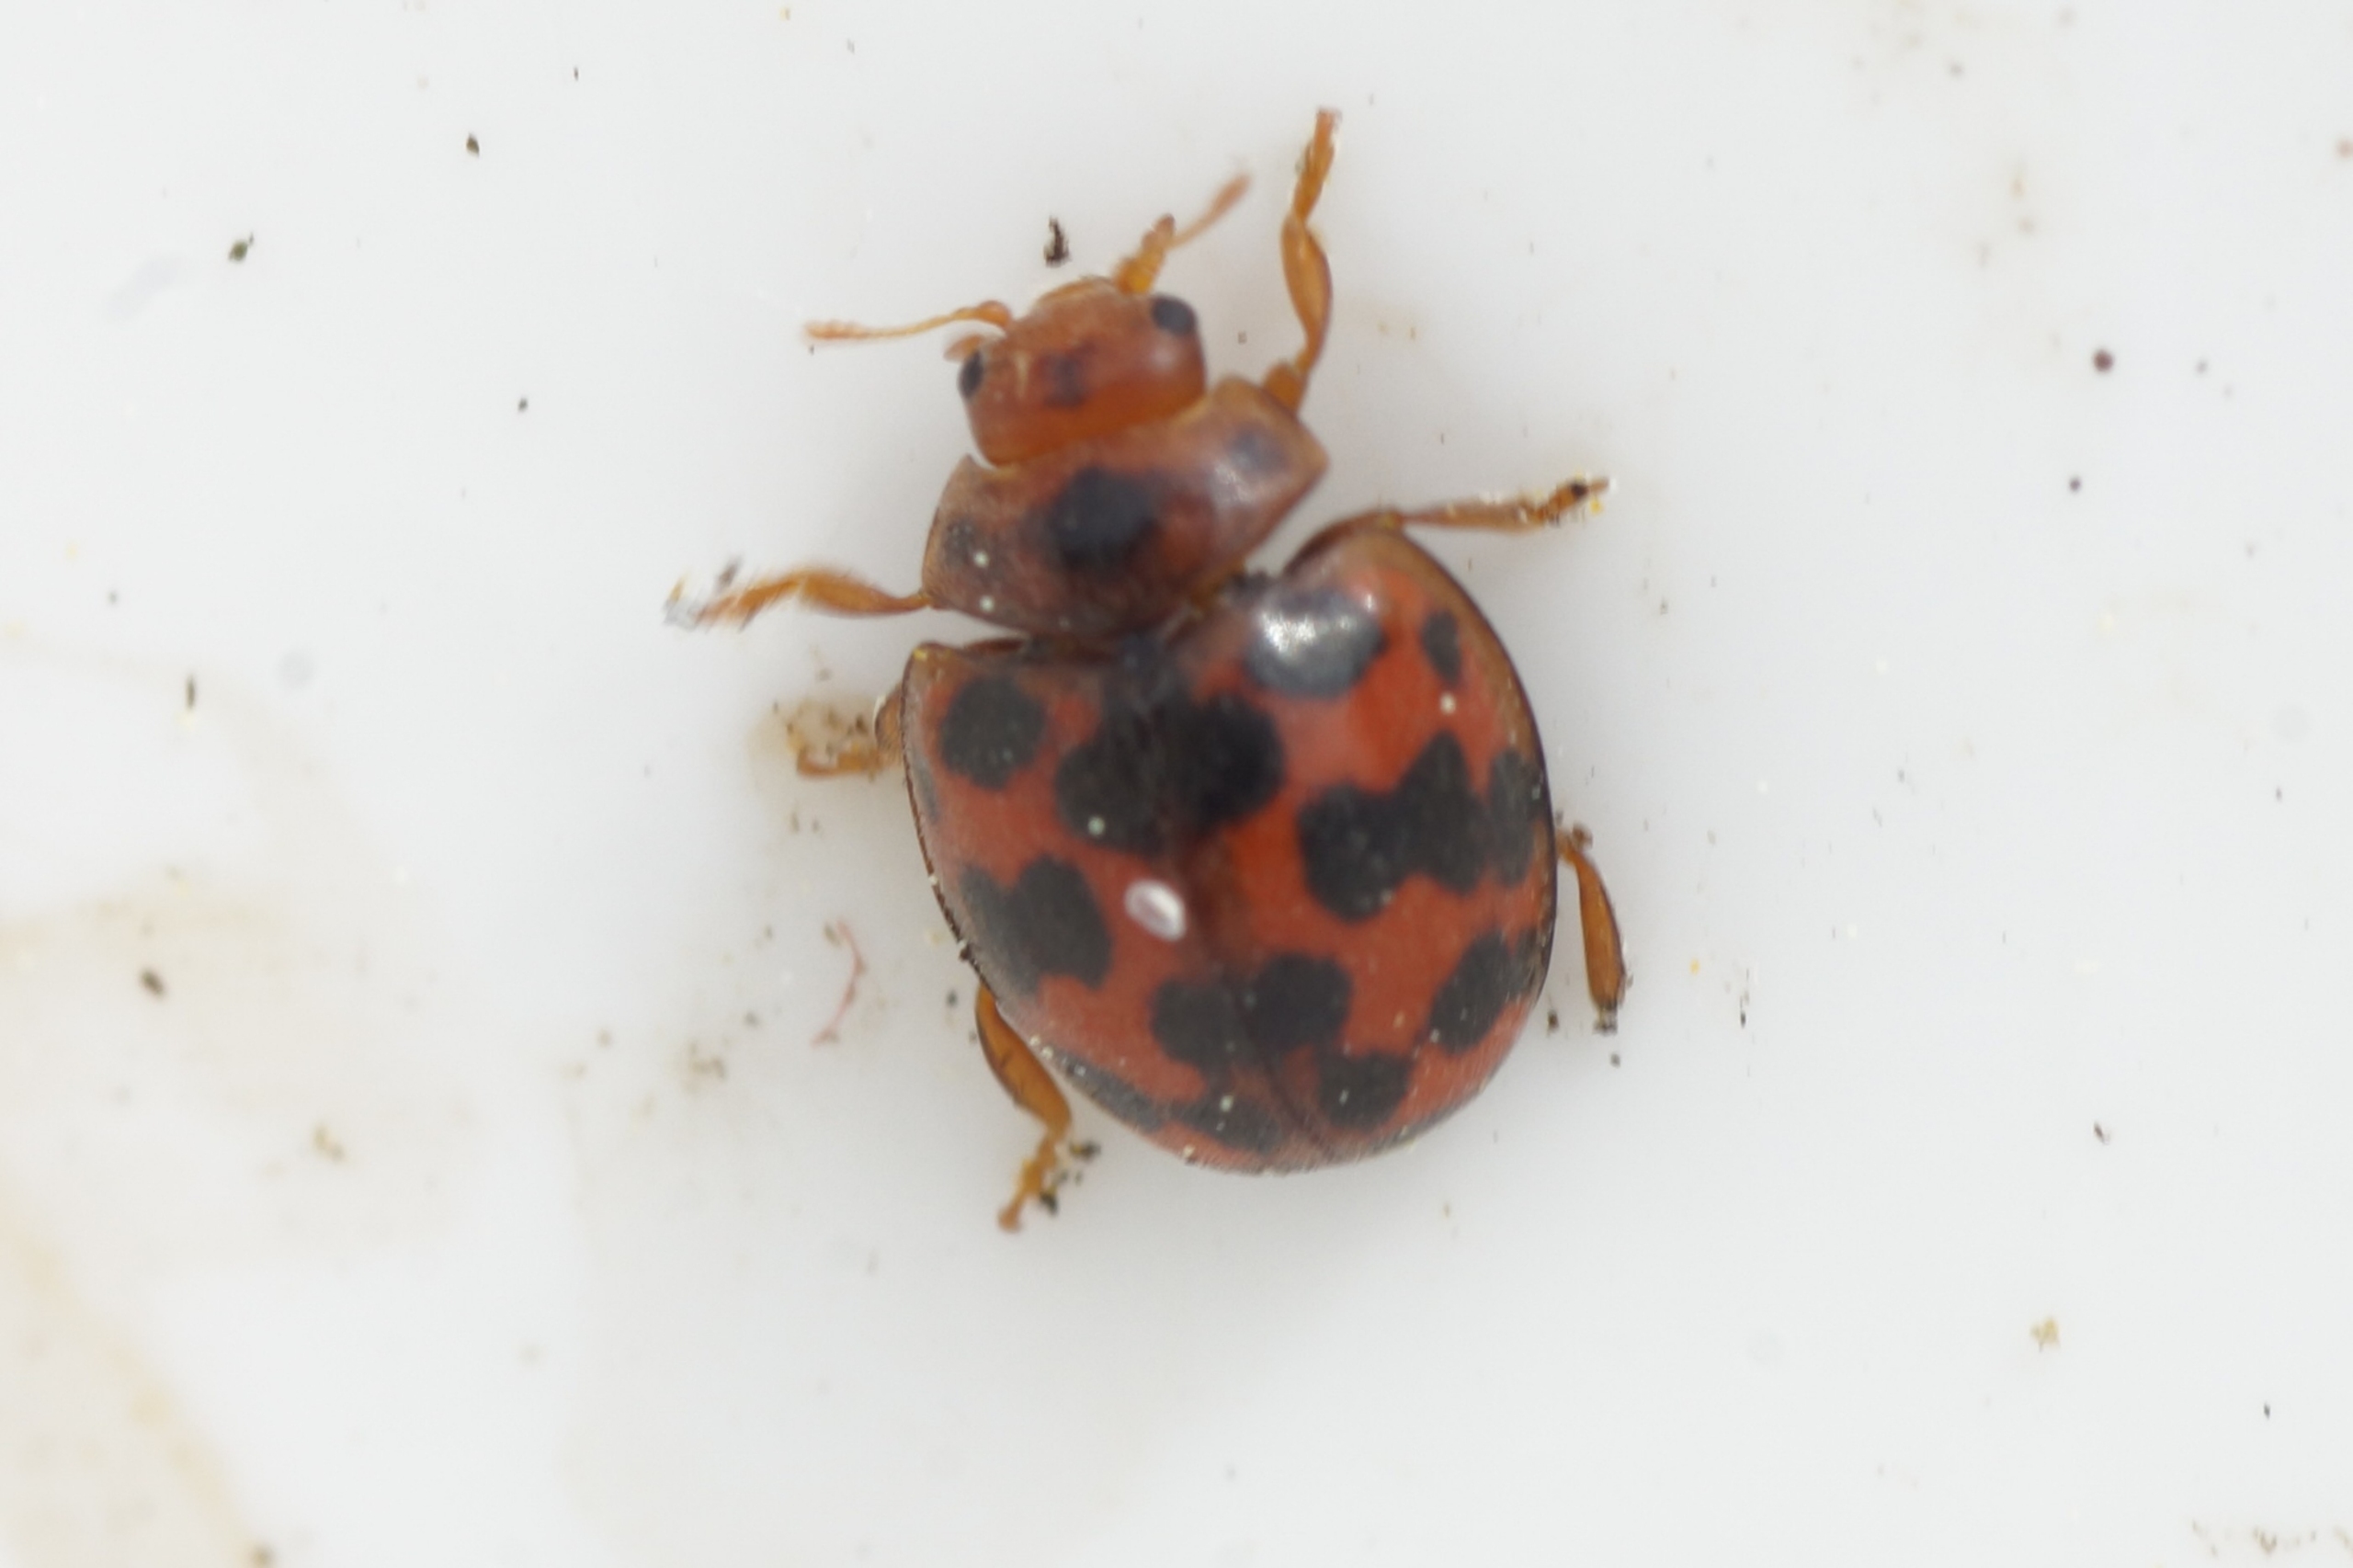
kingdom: Animalia
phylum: Arthropoda
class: Insecta
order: Coleoptera
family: Coccinellidae
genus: Subcoccinella
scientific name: Subcoccinella vigintiquatuorpunctata
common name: Fireogtyveplettet mariehøne
